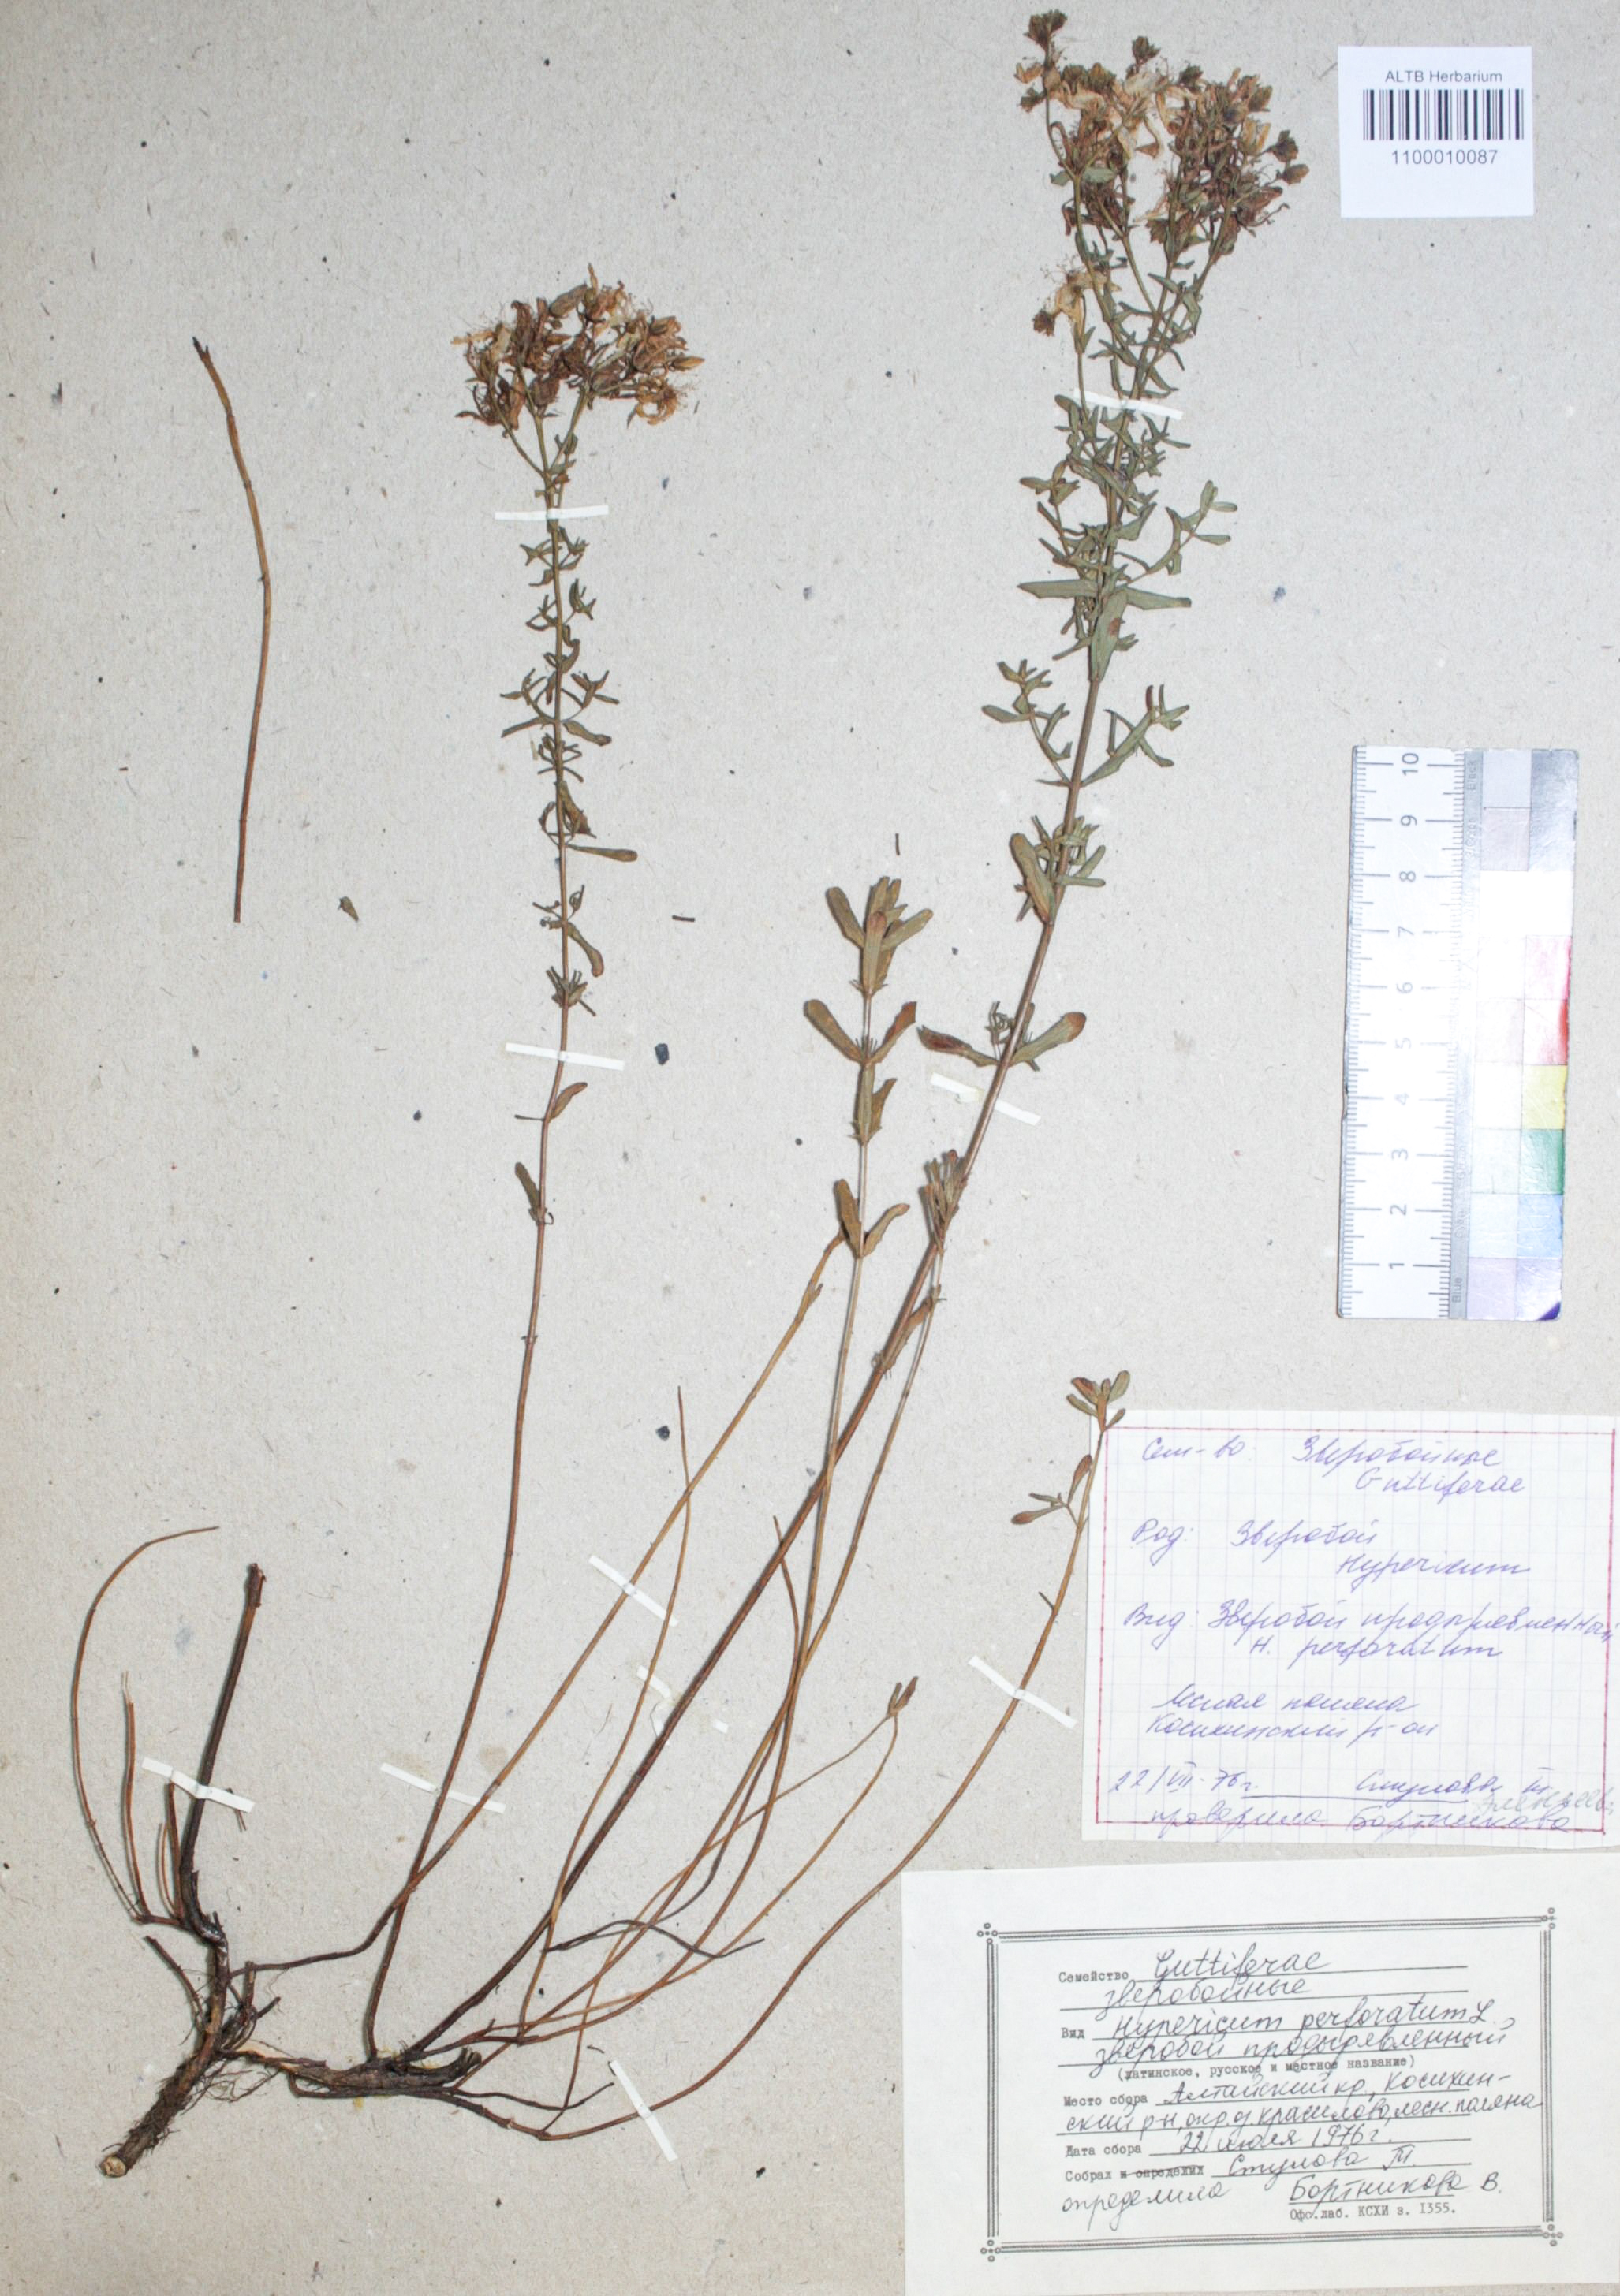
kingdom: Plantae
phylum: Tracheophyta
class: Magnoliopsida
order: Malpighiales
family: Hypericaceae
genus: Hypericum
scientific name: Hypericum perforatum
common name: Common st. johnswort
